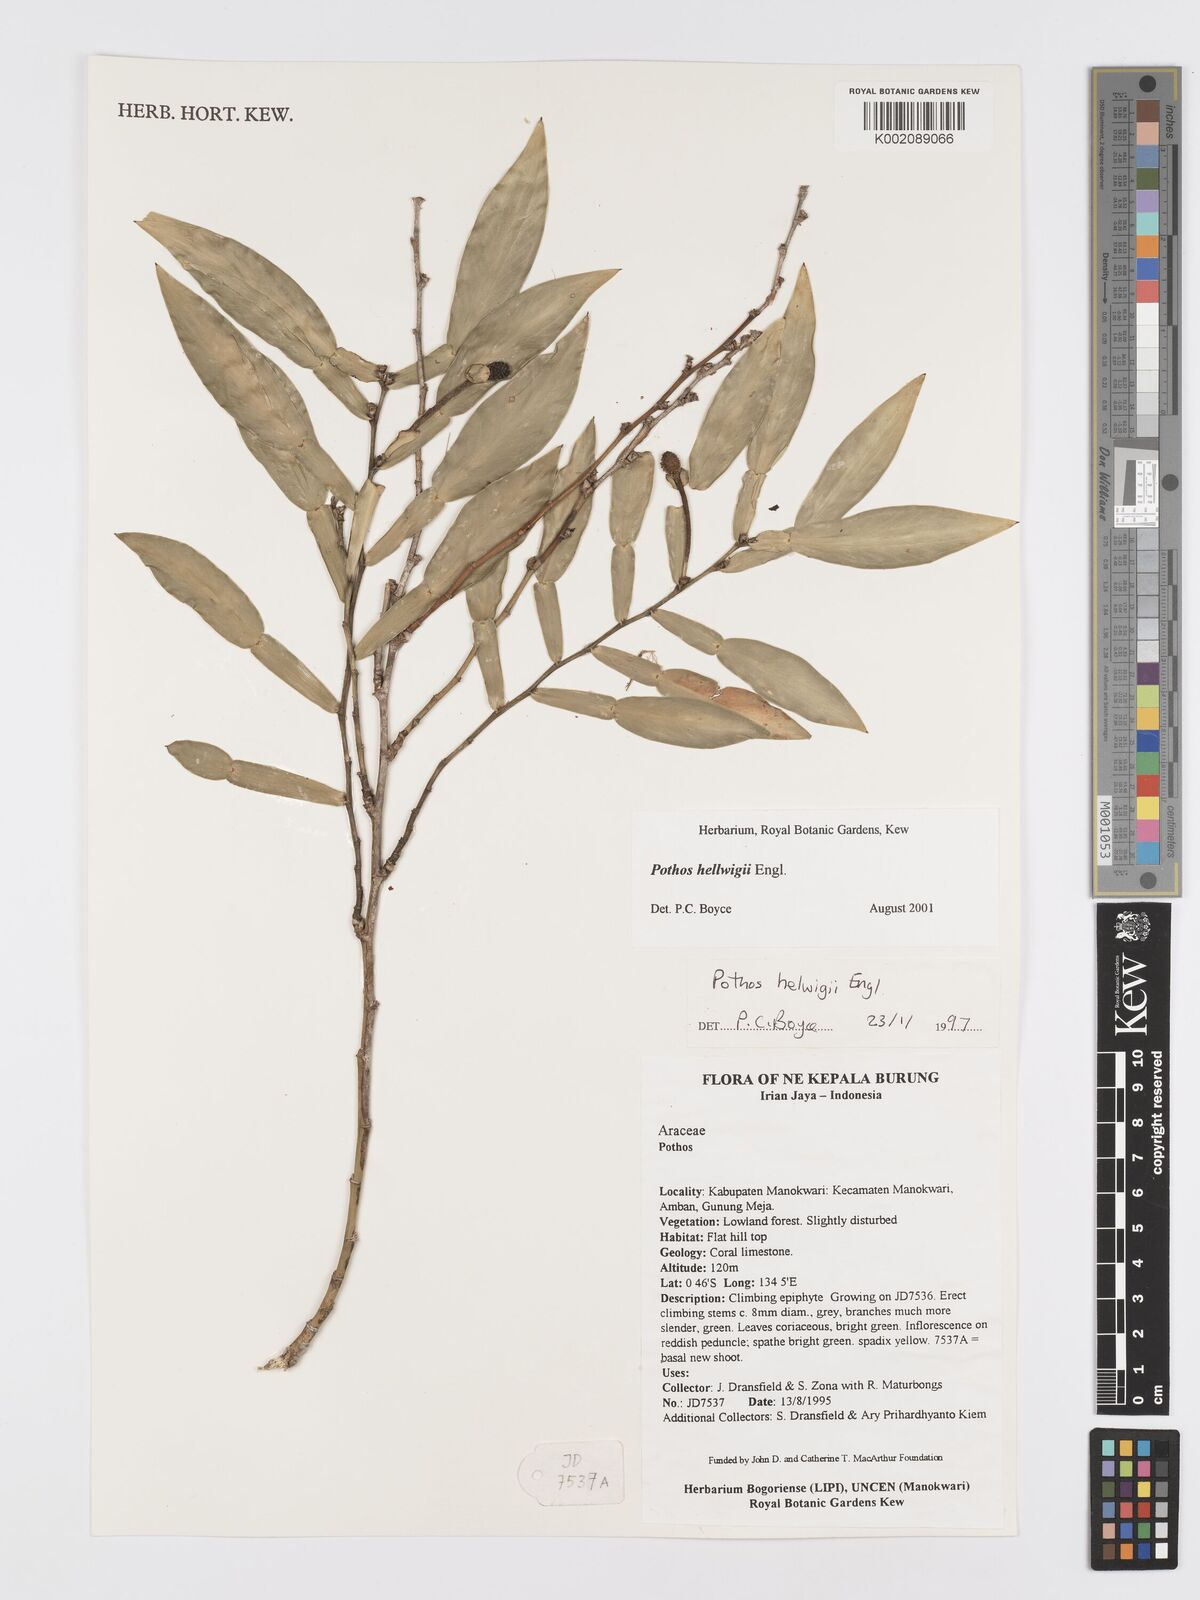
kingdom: Plantae
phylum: Tracheophyta
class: Liliopsida
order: Alismatales
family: Araceae
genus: Pothos
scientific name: Pothos hellwigii
